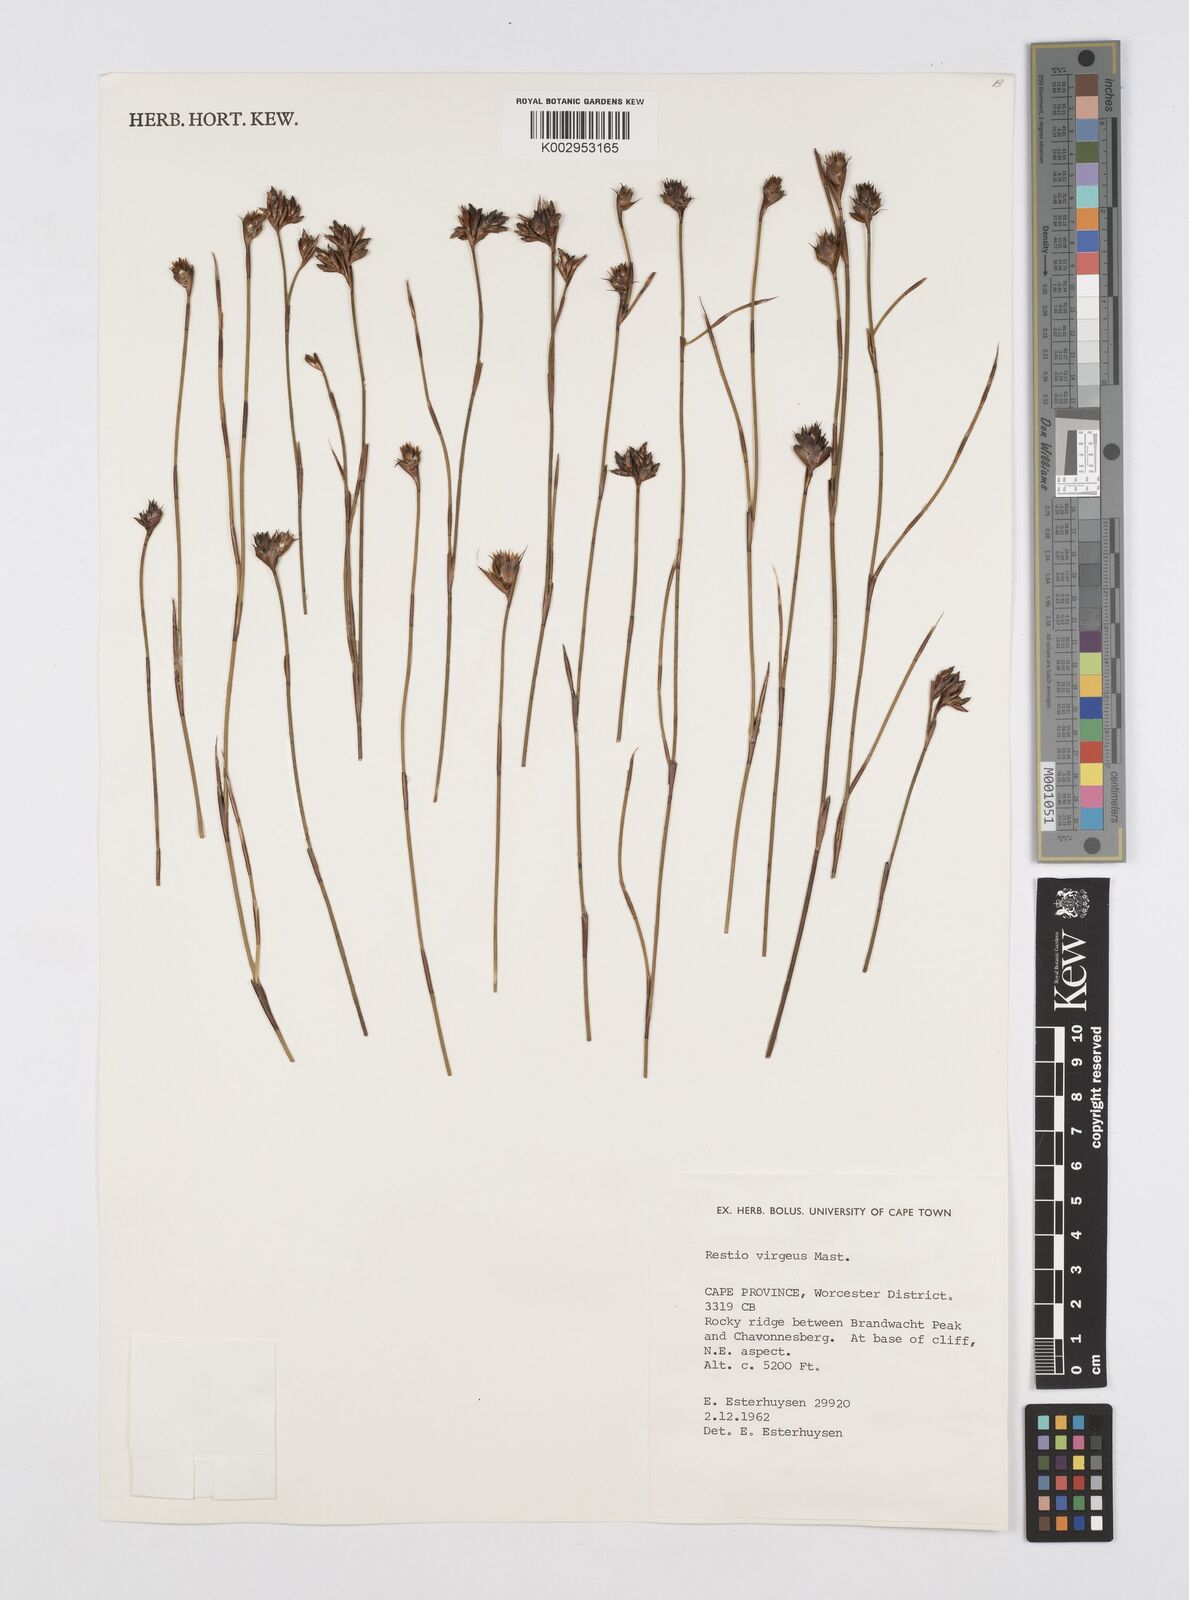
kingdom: Plantae
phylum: Tracheophyta
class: Liliopsida
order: Poales
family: Restionaceae
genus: Restio
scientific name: Restio virgeus
